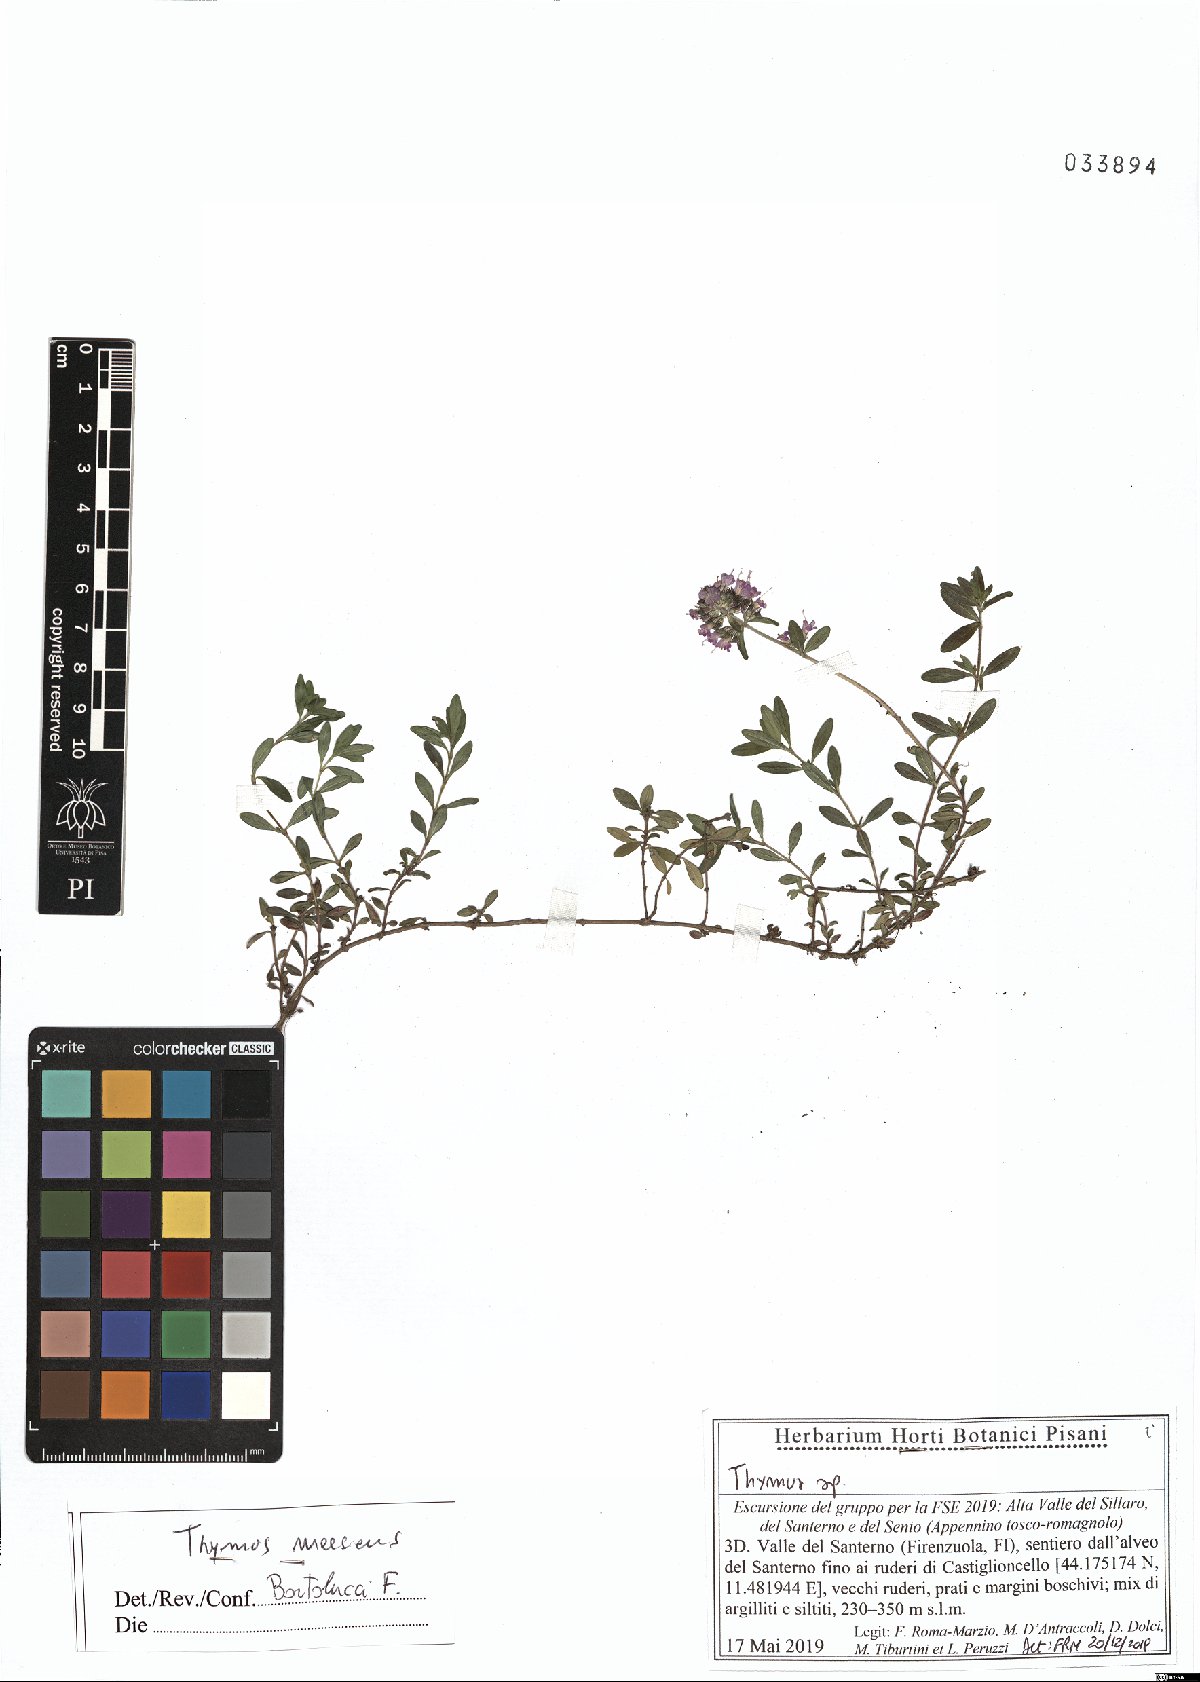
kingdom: Plantae
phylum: Tracheophyta
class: Magnoliopsida
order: Lamiales
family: Lamiaceae
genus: Thymus
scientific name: Thymus longicaulis
